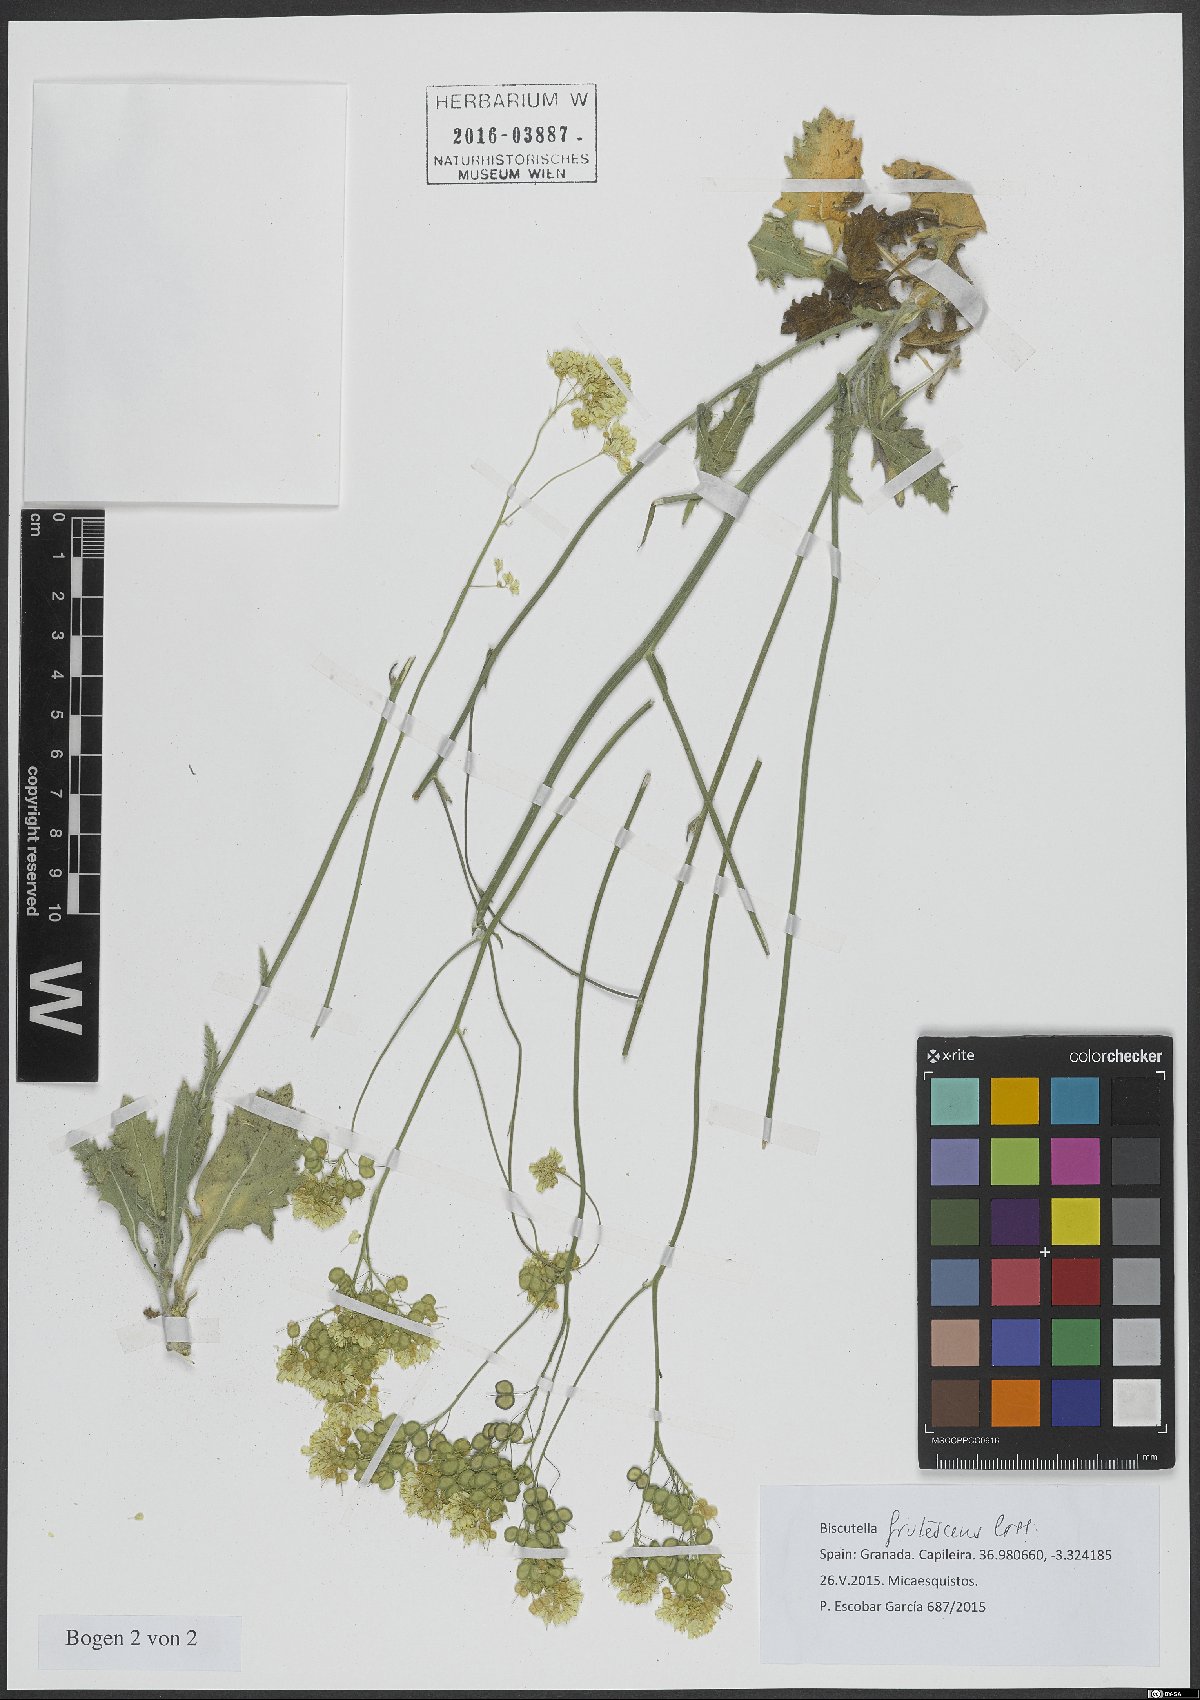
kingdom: Plantae
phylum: Tracheophyta
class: Magnoliopsida
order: Brassicales
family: Brassicaceae
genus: Biscutella
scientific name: Biscutella frutescens
